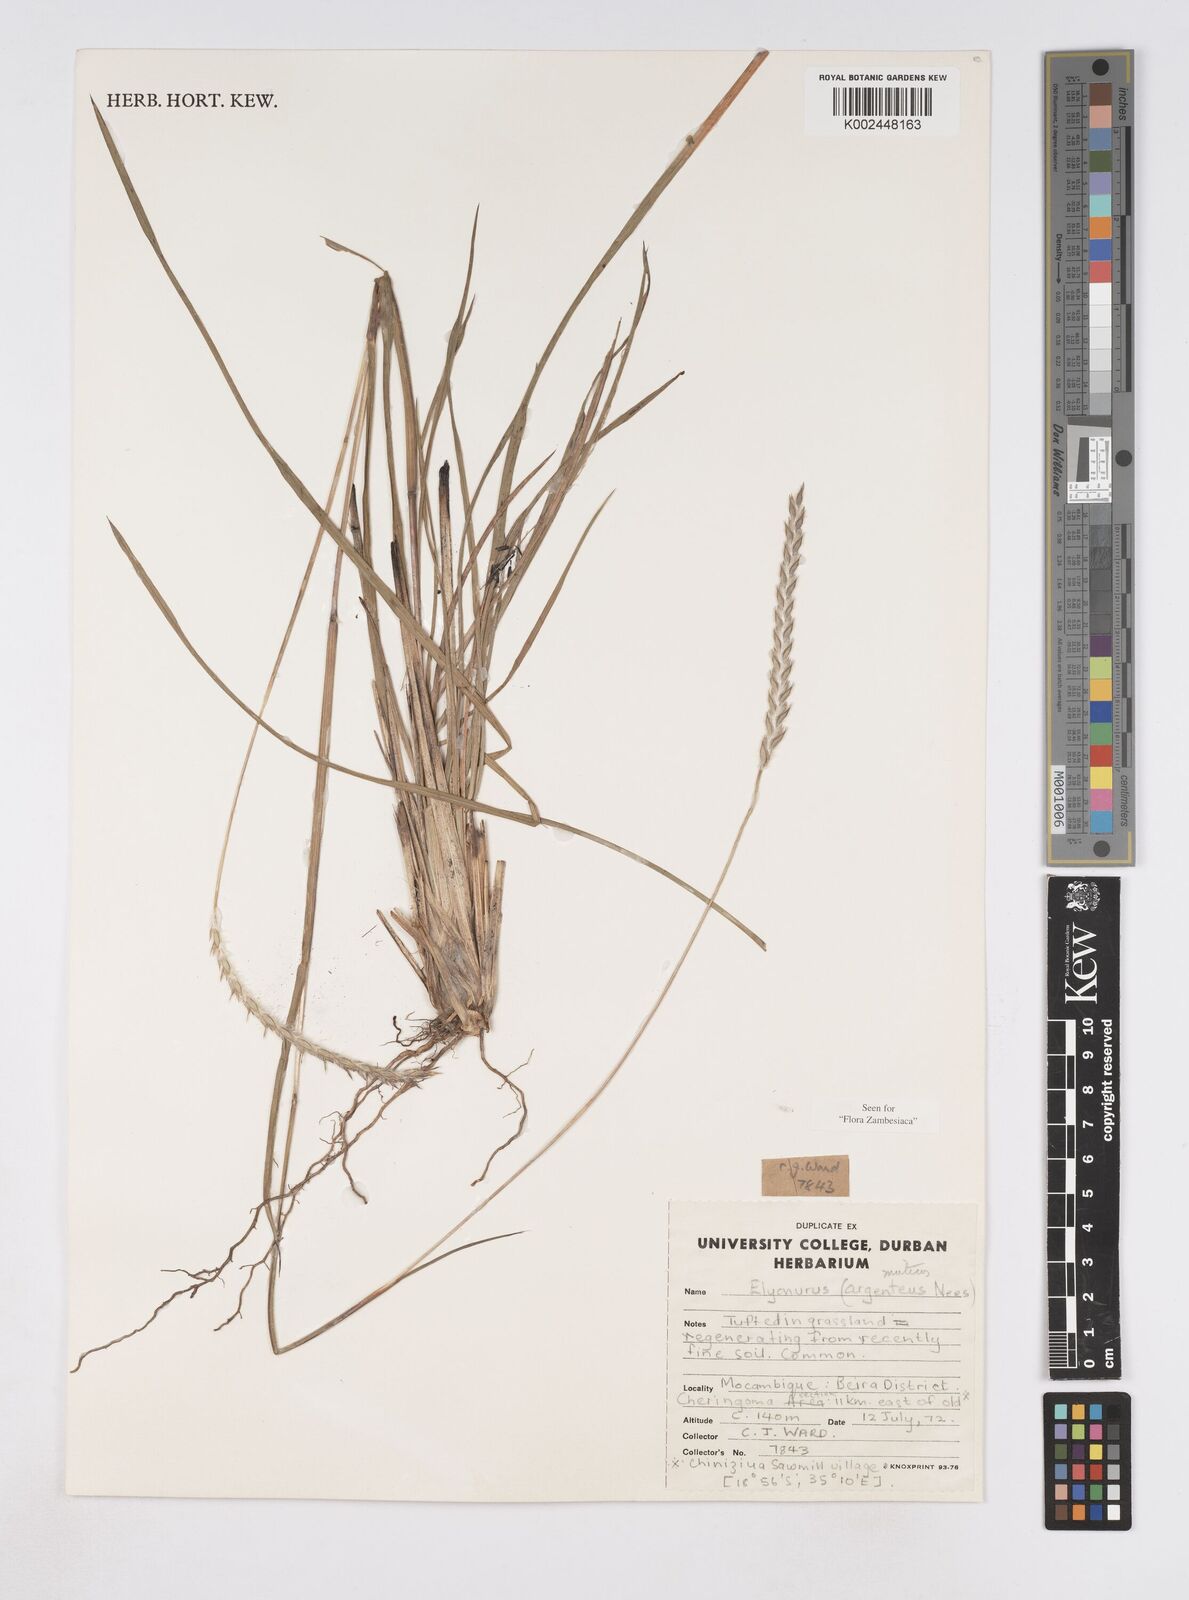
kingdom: Plantae
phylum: Tracheophyta
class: Liliopsida
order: Poales
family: Poaceae
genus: Elionurus
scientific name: Elionurus muticus
